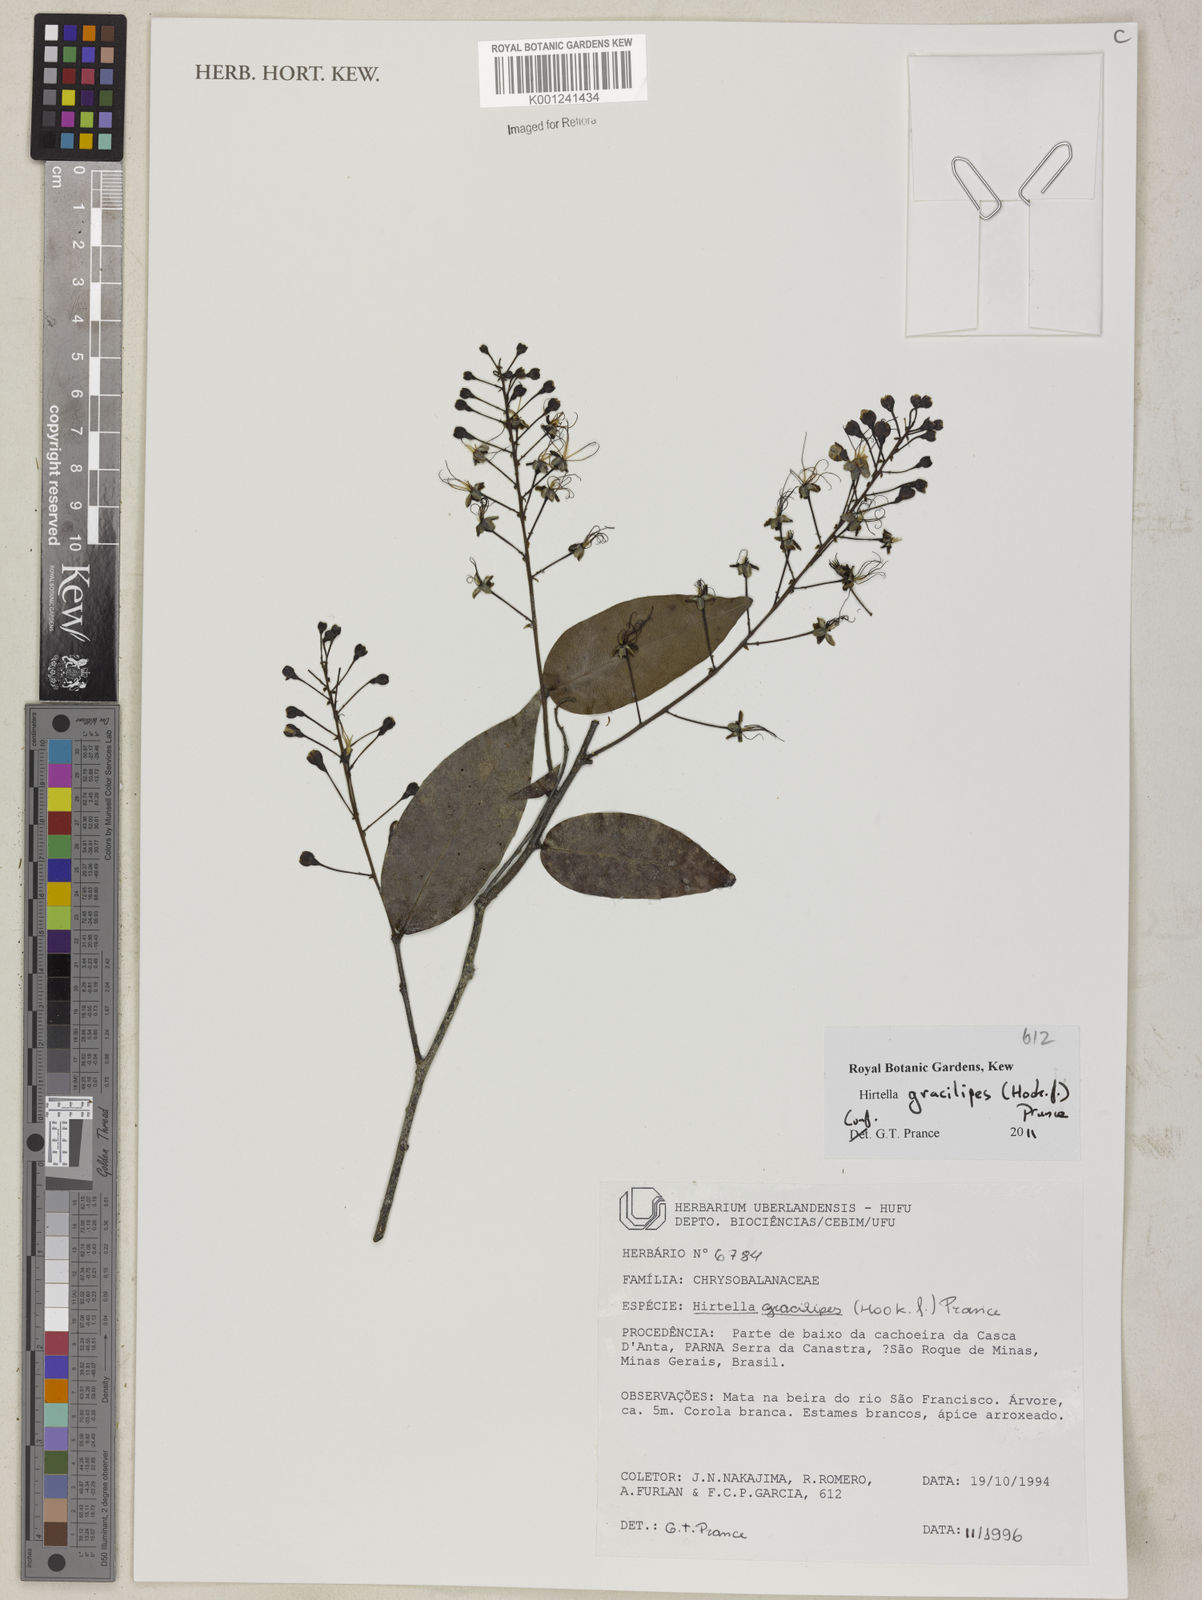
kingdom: Plantae
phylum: Tracheophyta
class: Magnoliopsida
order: Malpighiales
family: Chrysobalanaceae
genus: Hirtella
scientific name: Hirtella gracilipes
